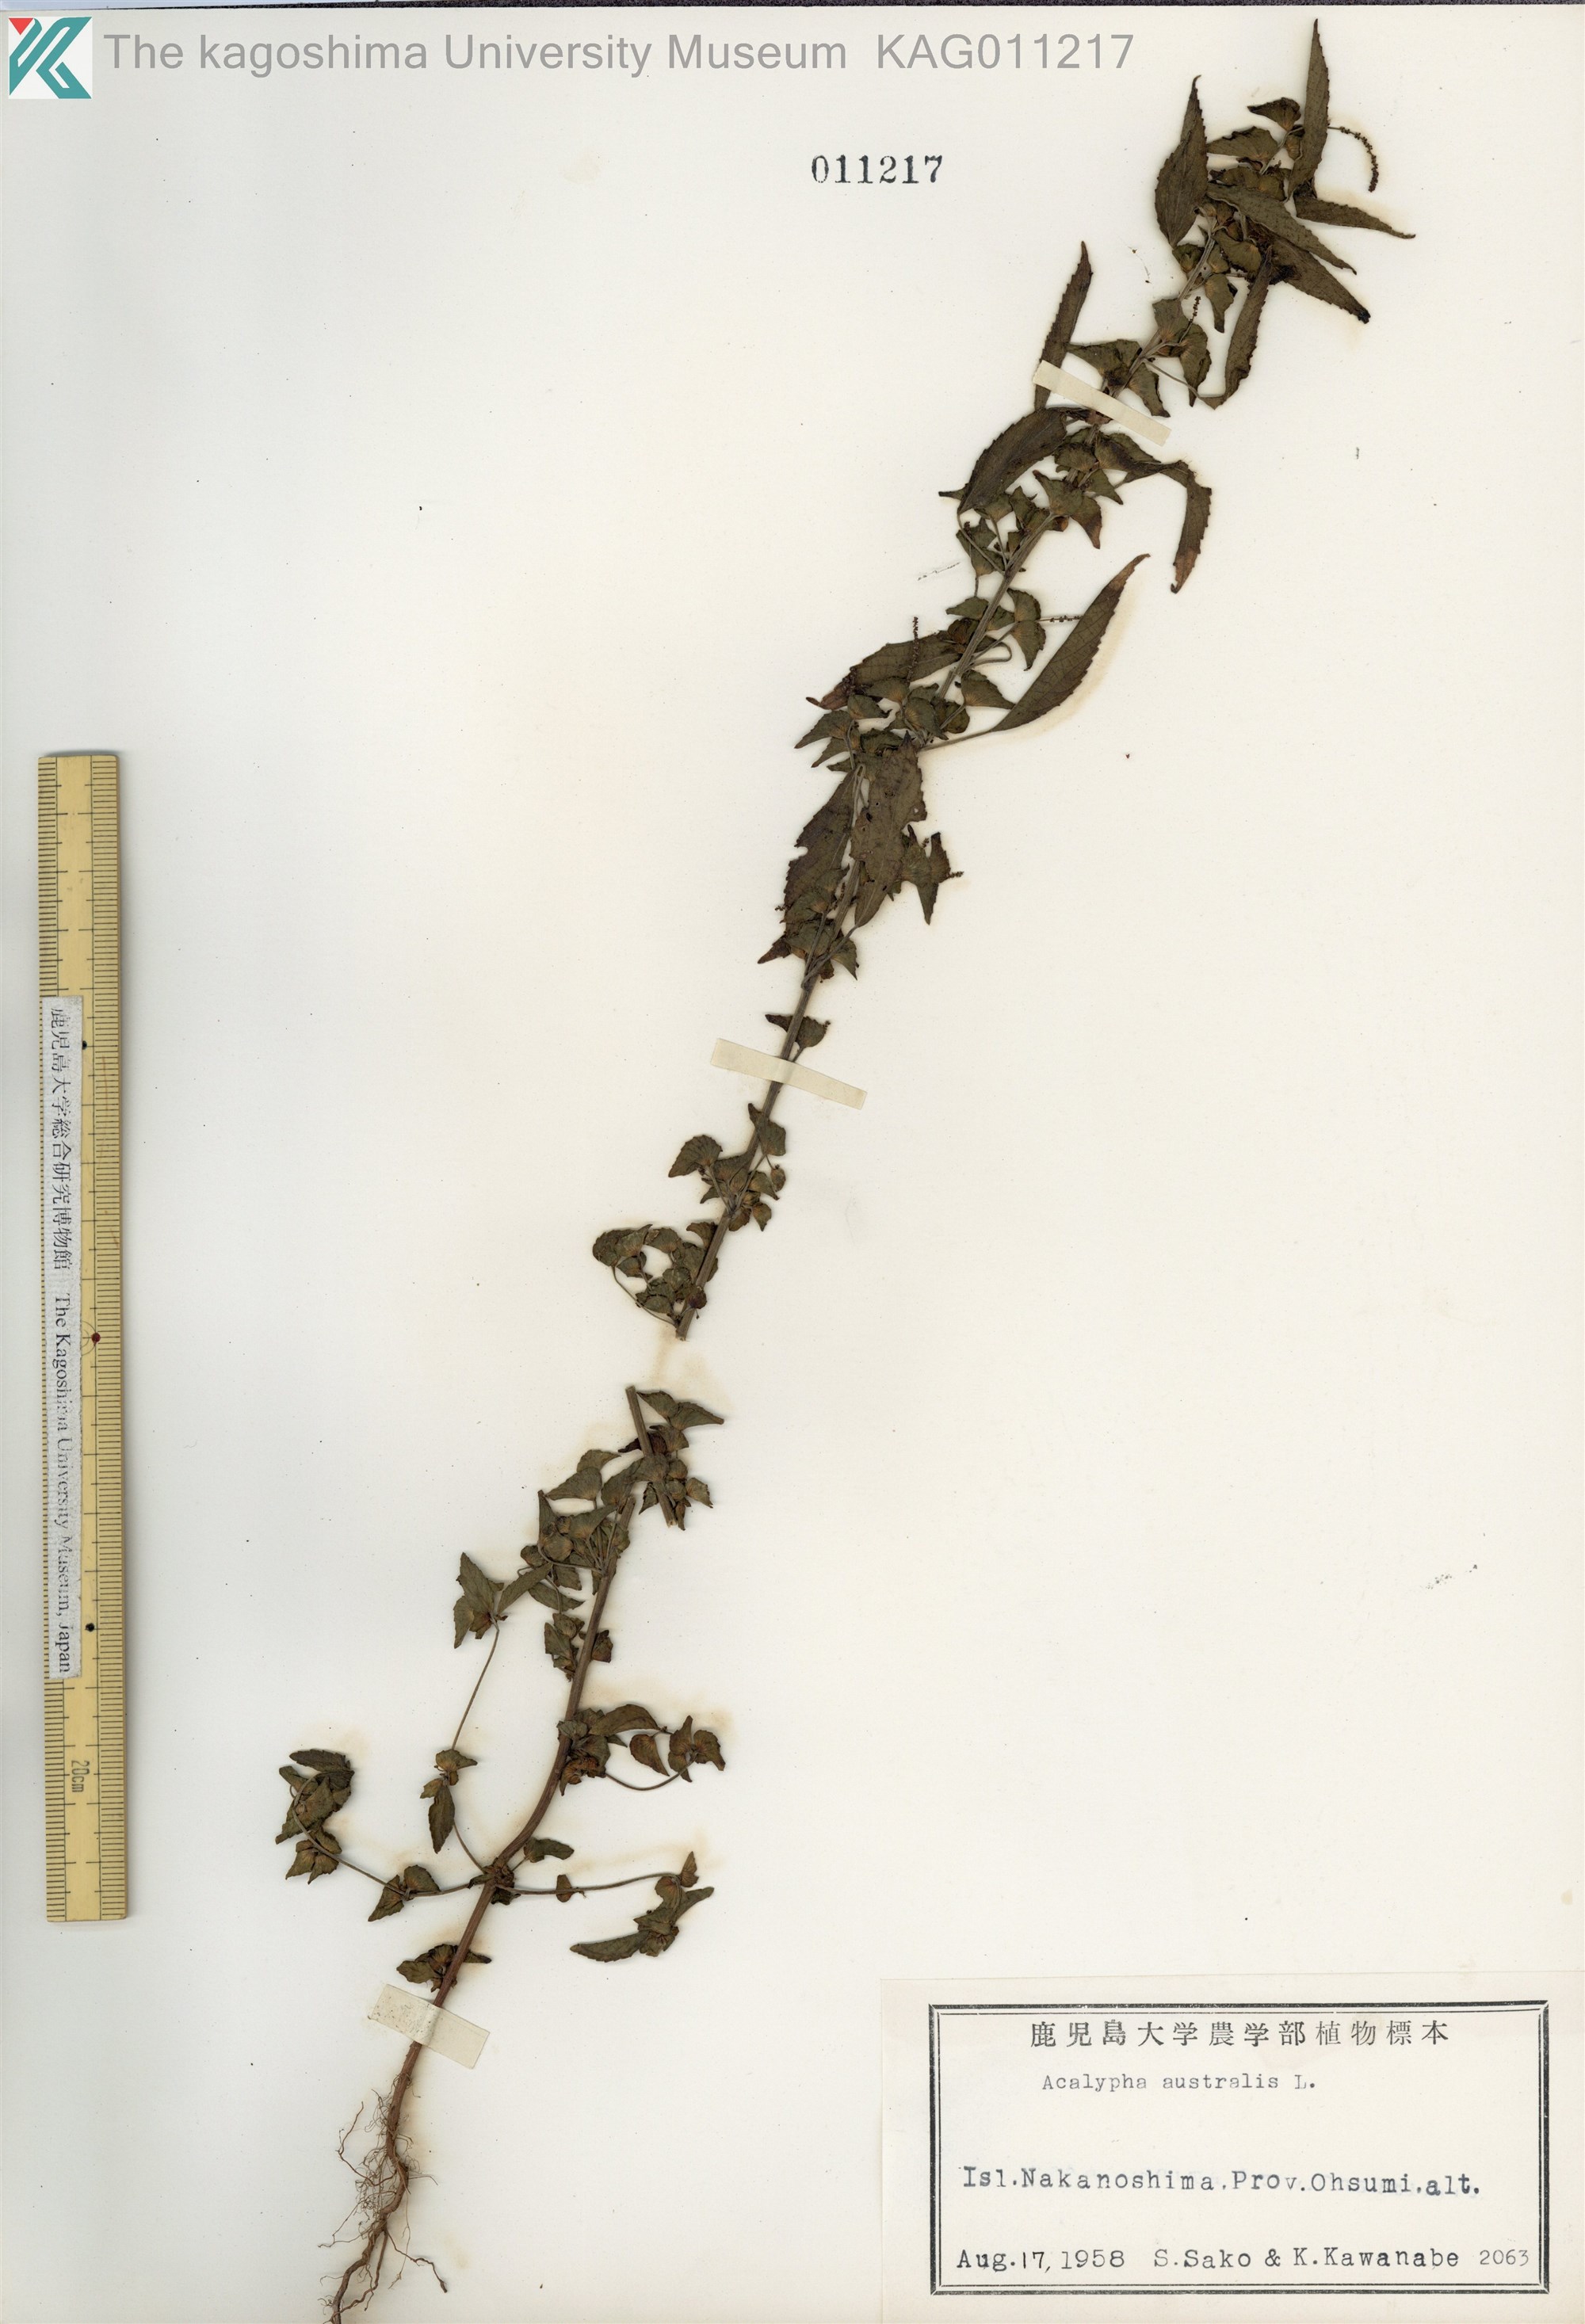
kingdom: Plantae
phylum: Tracheophyta
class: Magnoliopsida
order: Malpighiales
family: Euphorbiaceae
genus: Acalypha
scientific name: Acalypha australis
